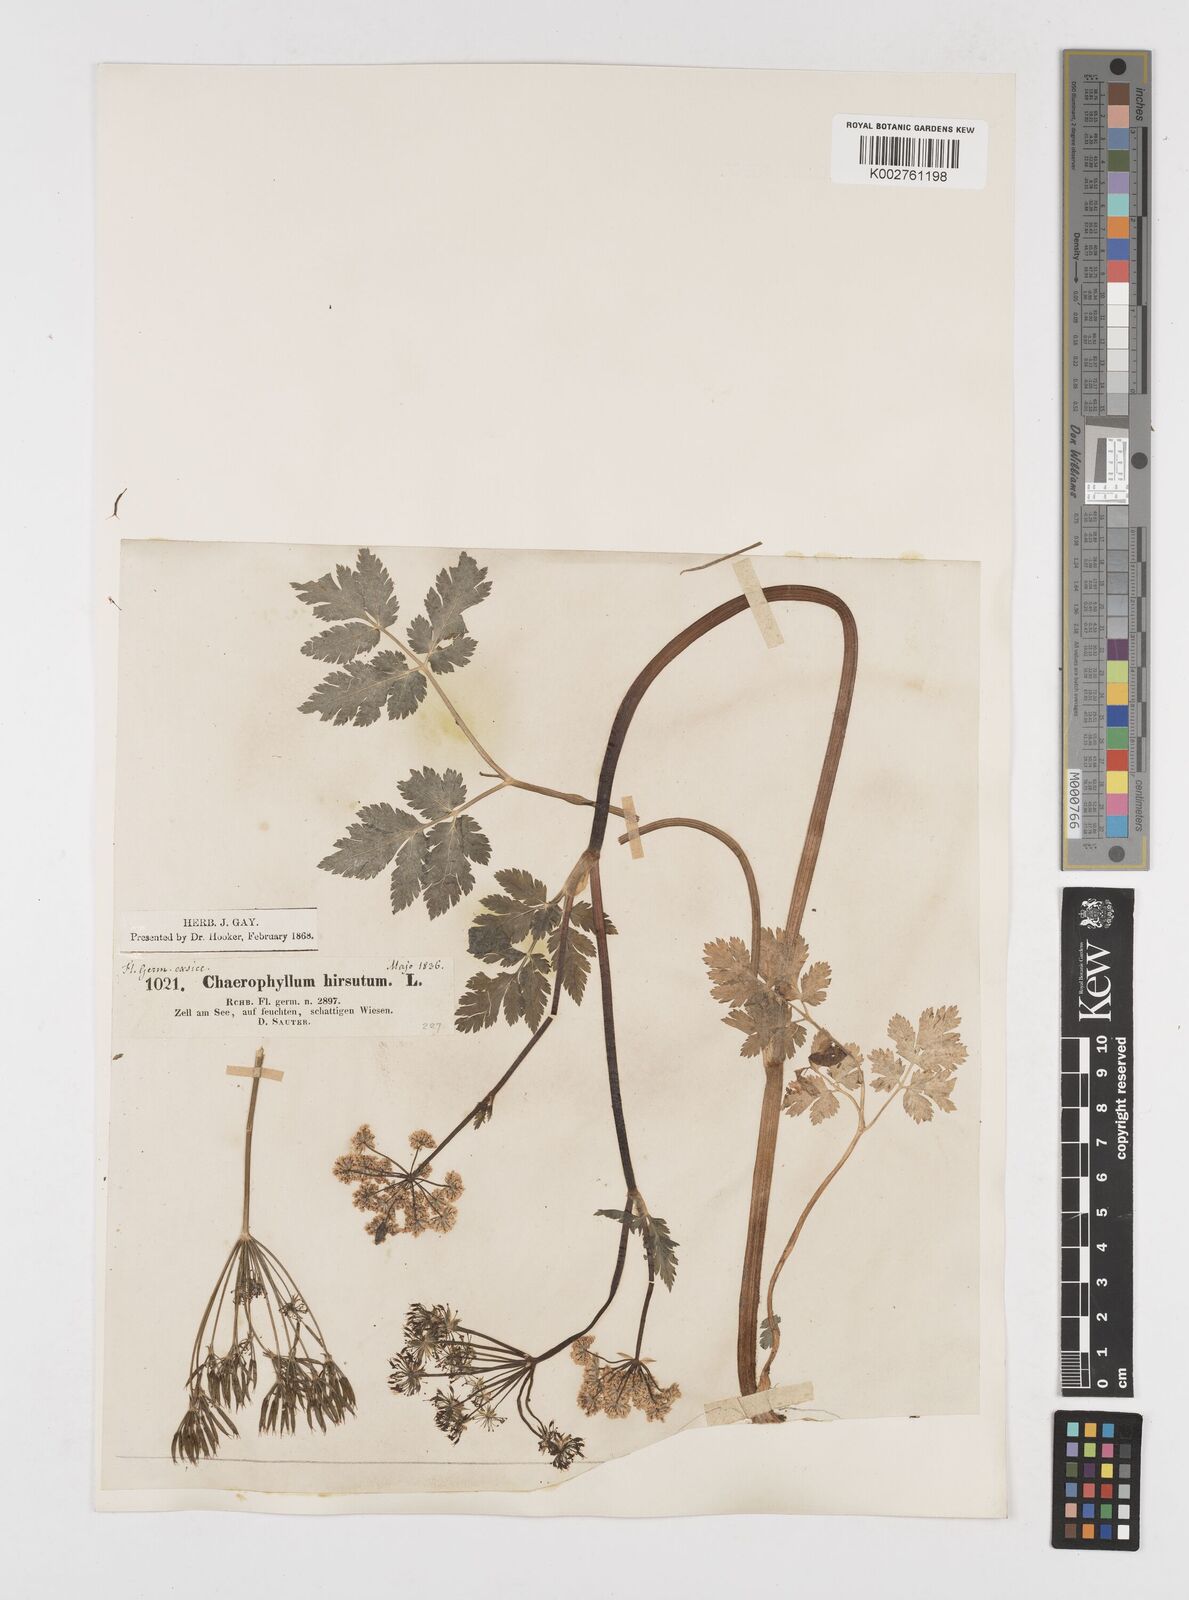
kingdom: Plantae
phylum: Tracheophyta
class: Magnoliopsida
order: Apiales
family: Apiaceae
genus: Chaerophyllum
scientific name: Chaerophyllum hirsutum
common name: Hairy chervil
